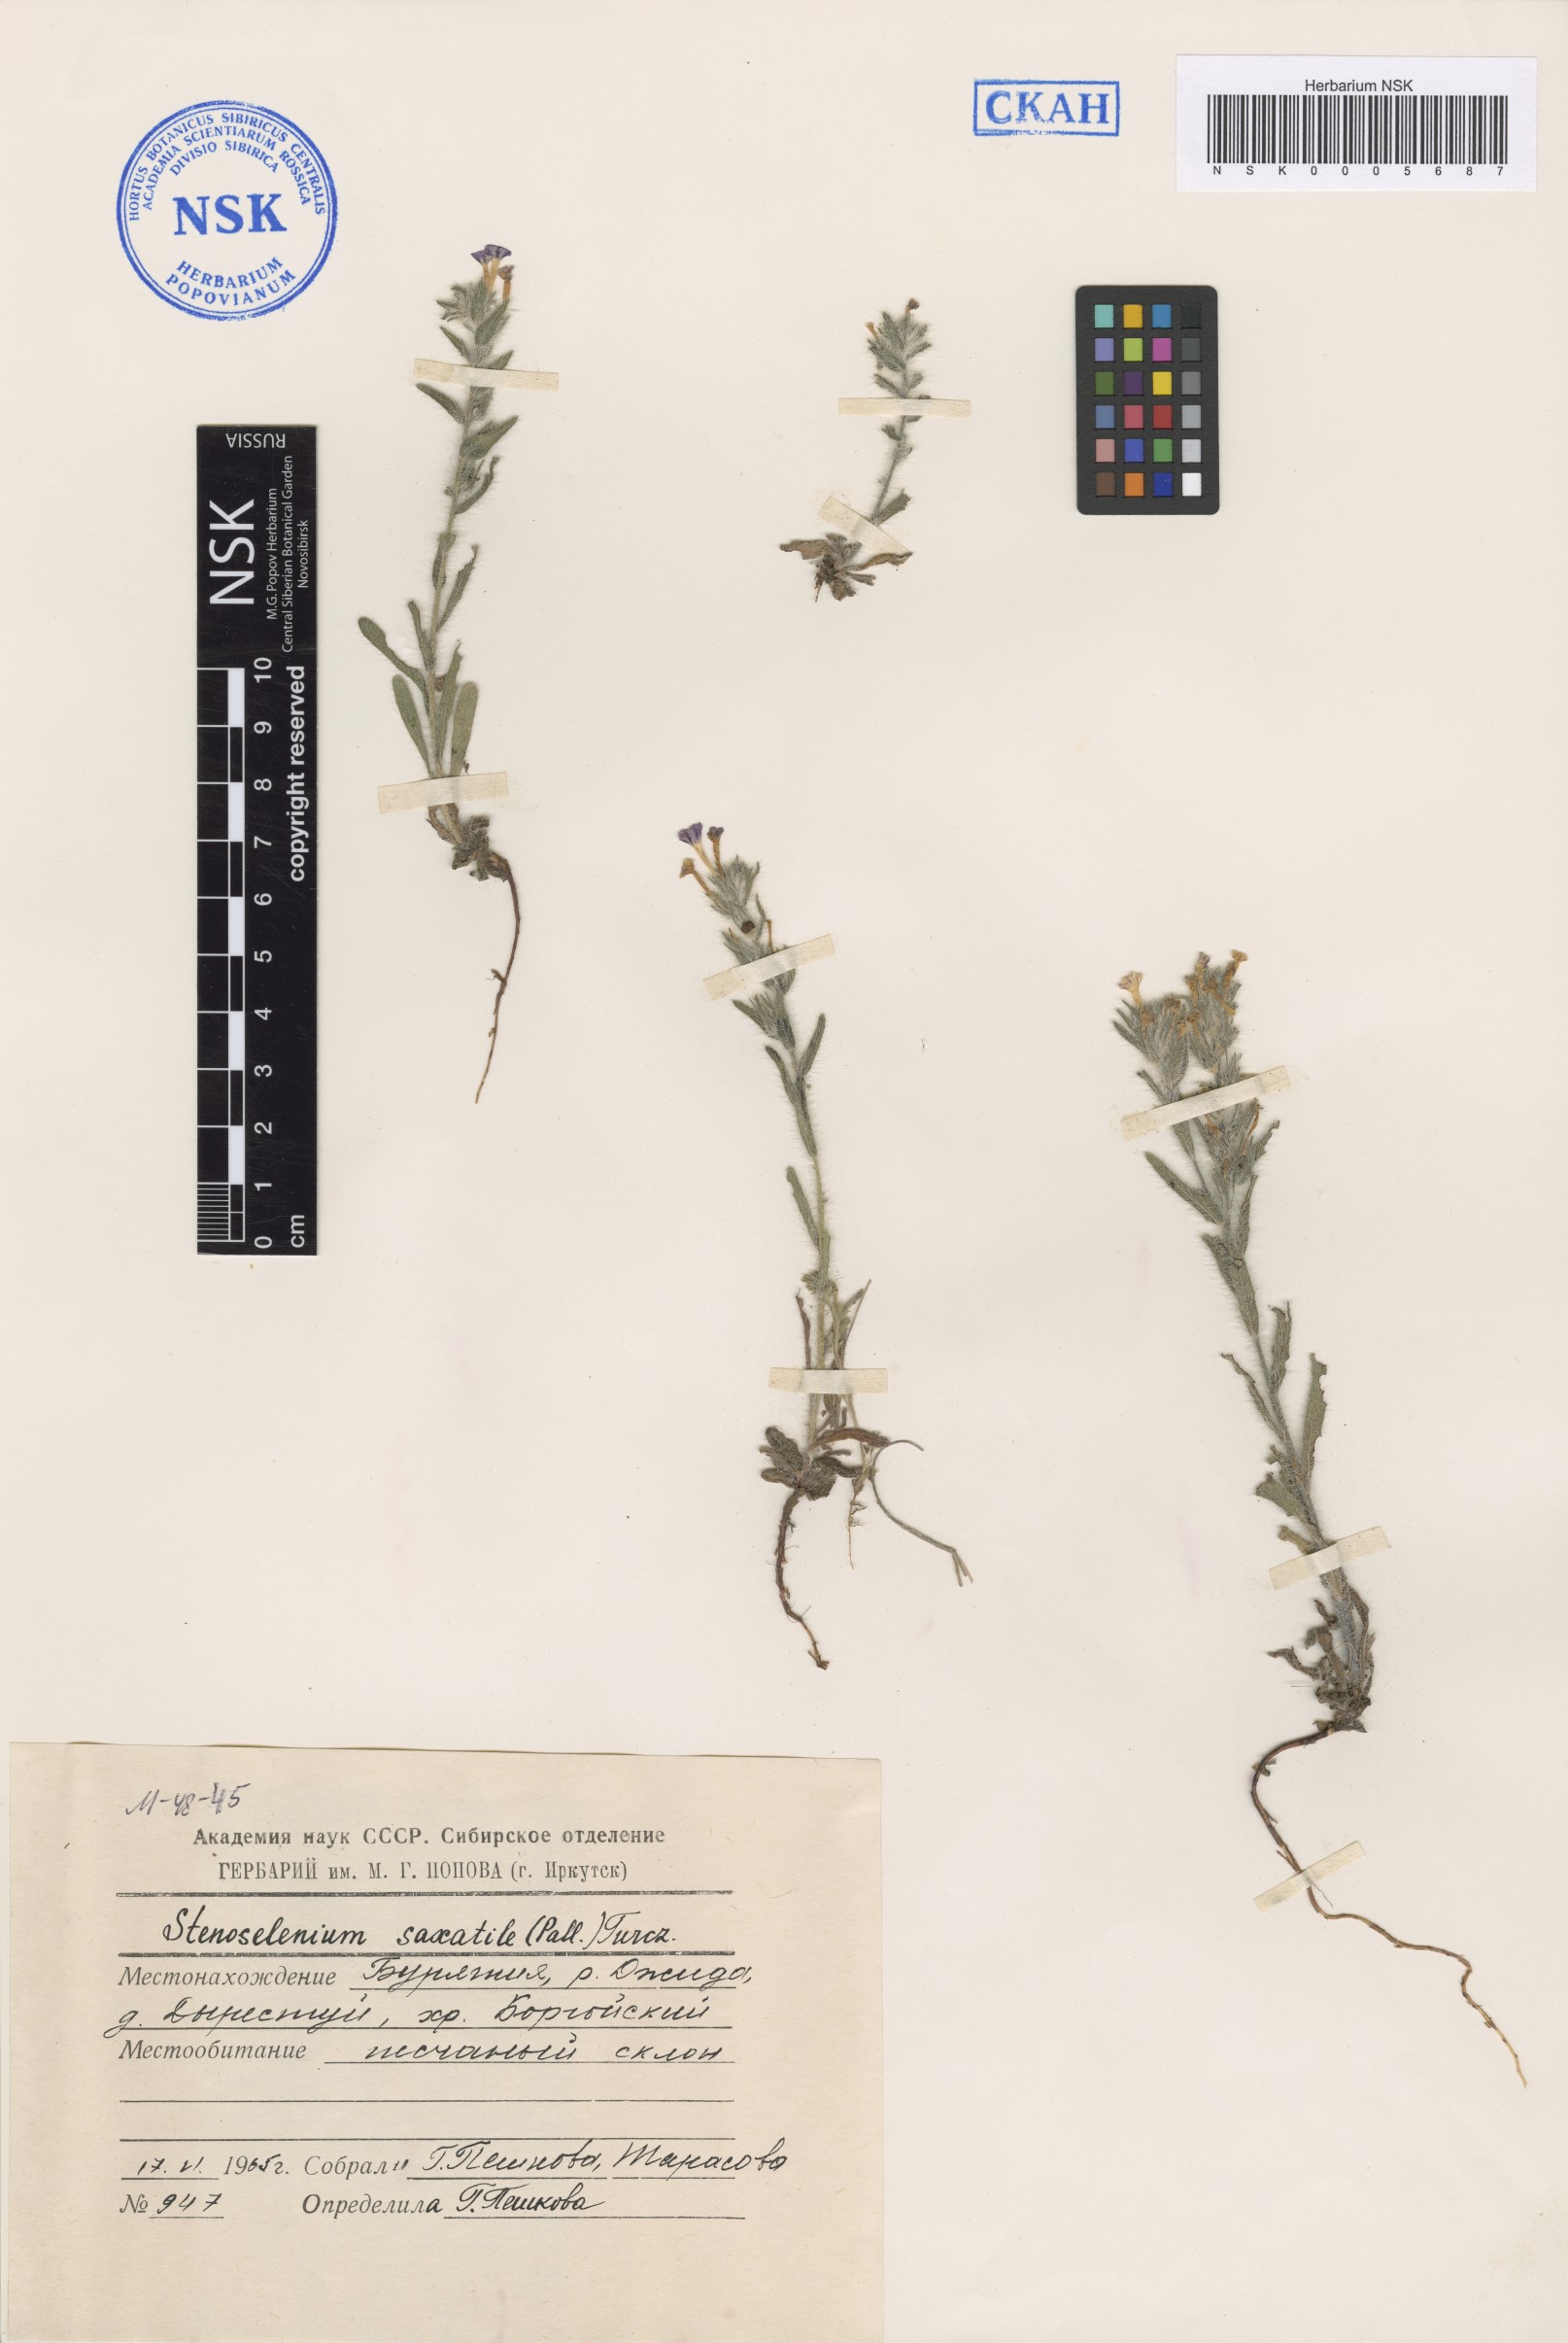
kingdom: Plantae
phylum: Tracheophyta
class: Magnoliopsida
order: Boraginales
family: Boraginaceae
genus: Stenosolenium
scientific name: Stenosolenium saxatile
